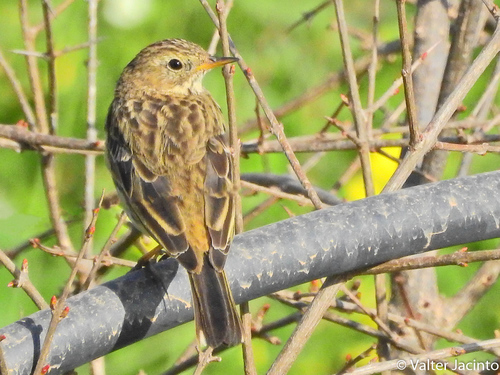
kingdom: Animalia
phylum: Chordata
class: Aves
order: Passeriformes
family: Motacillidae
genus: Anthus
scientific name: Anthus pratensis
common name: Meadow pipit
